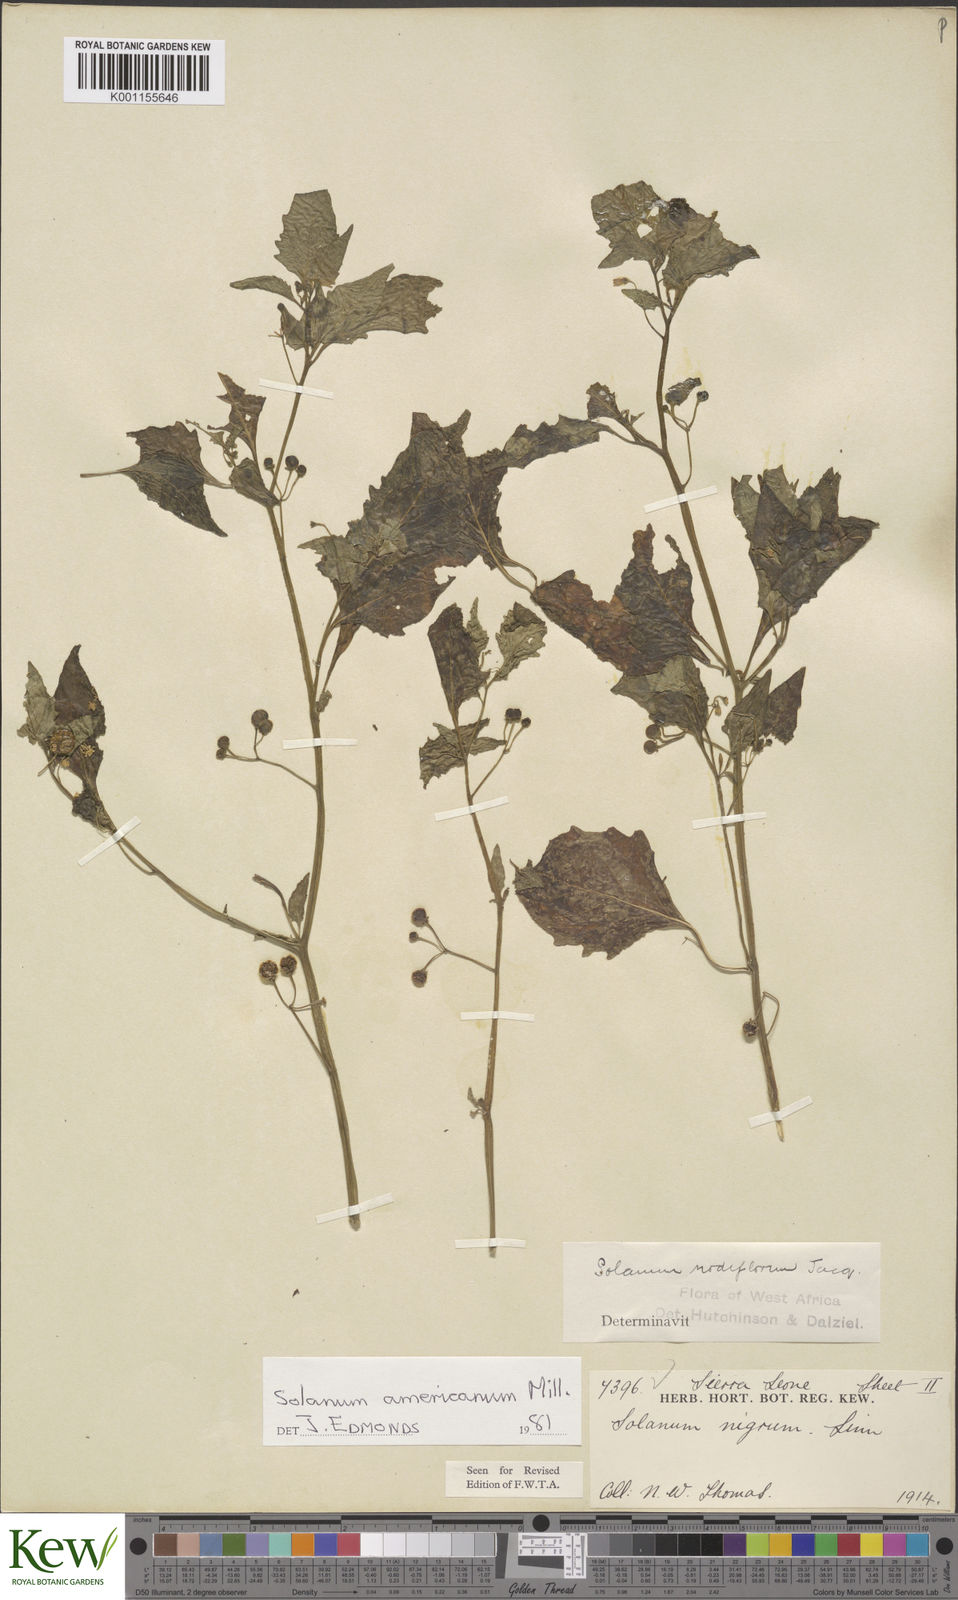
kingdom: Plantae
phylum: Tracheophyta
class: Magnoliopsida
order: Solanales
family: Solanaceae
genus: Solanum
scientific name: Solanum americanum
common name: American black nightshade
